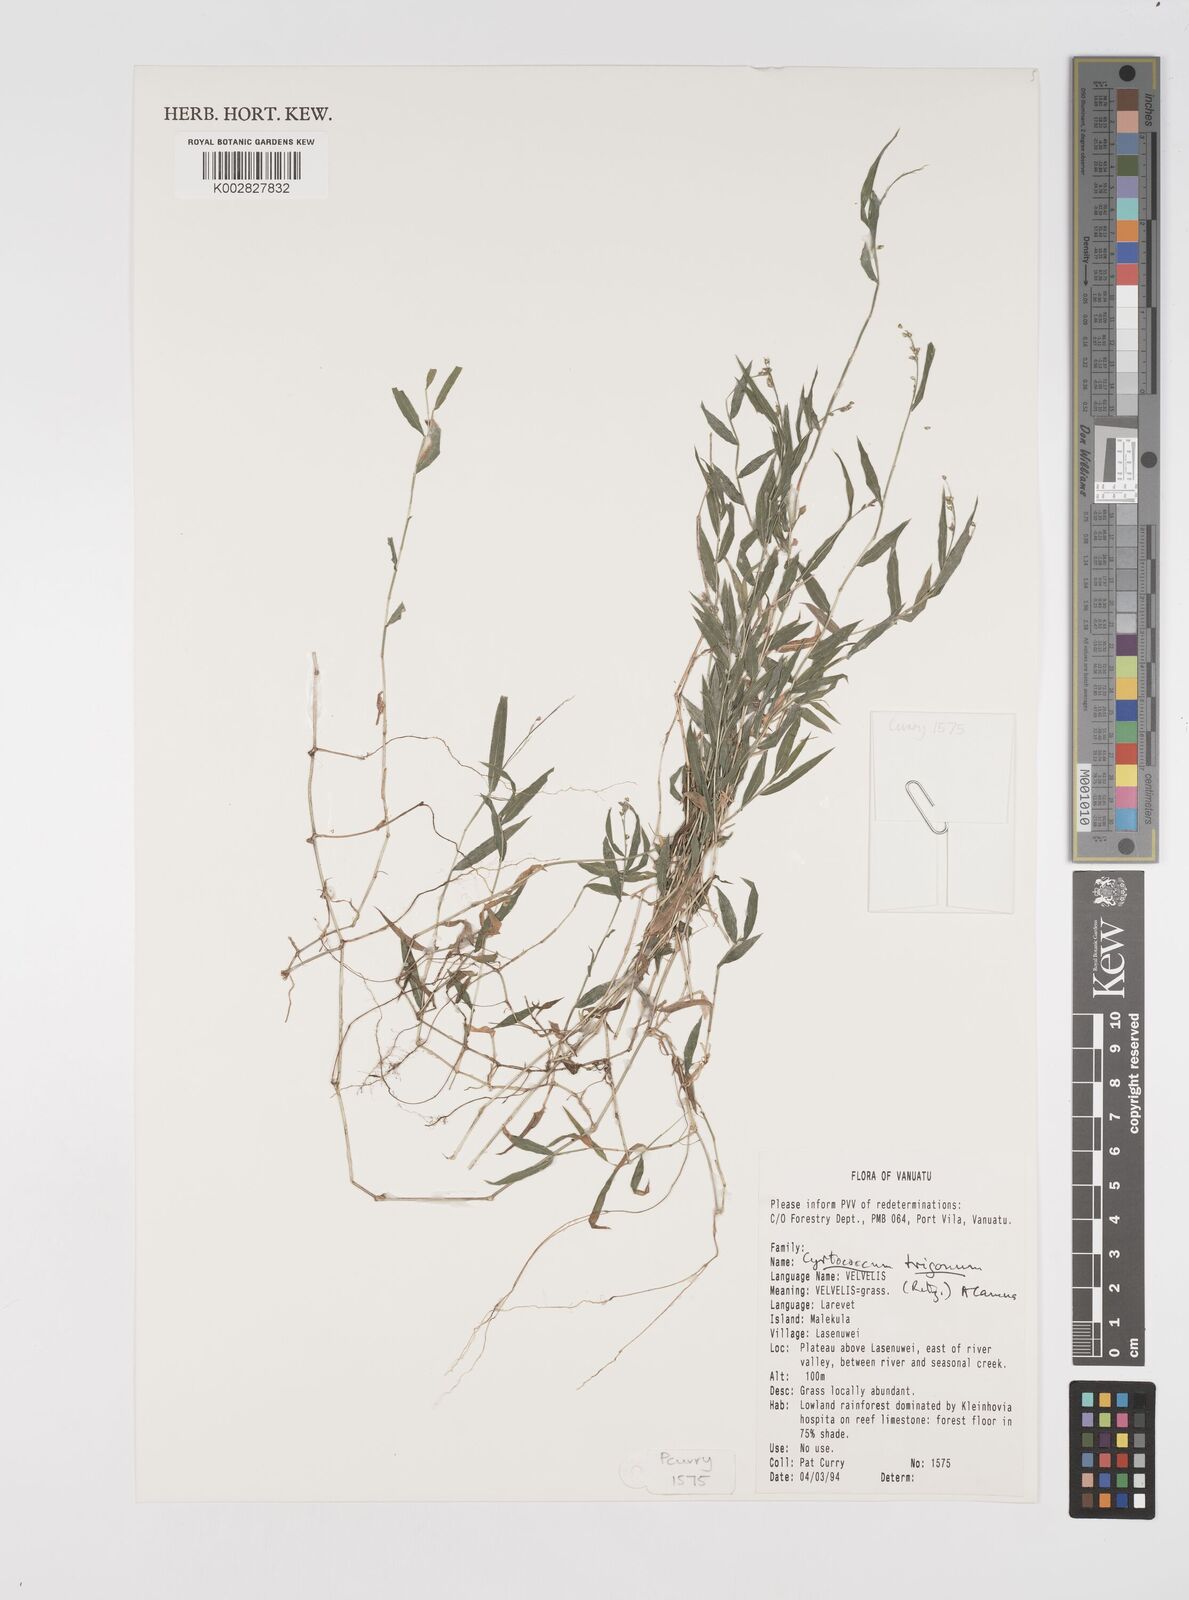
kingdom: Plantae
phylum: Tracheophyta
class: Liliopsida
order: Poales
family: Poaceae
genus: Cyrtococcum
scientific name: Cyrtococcum trigonum
